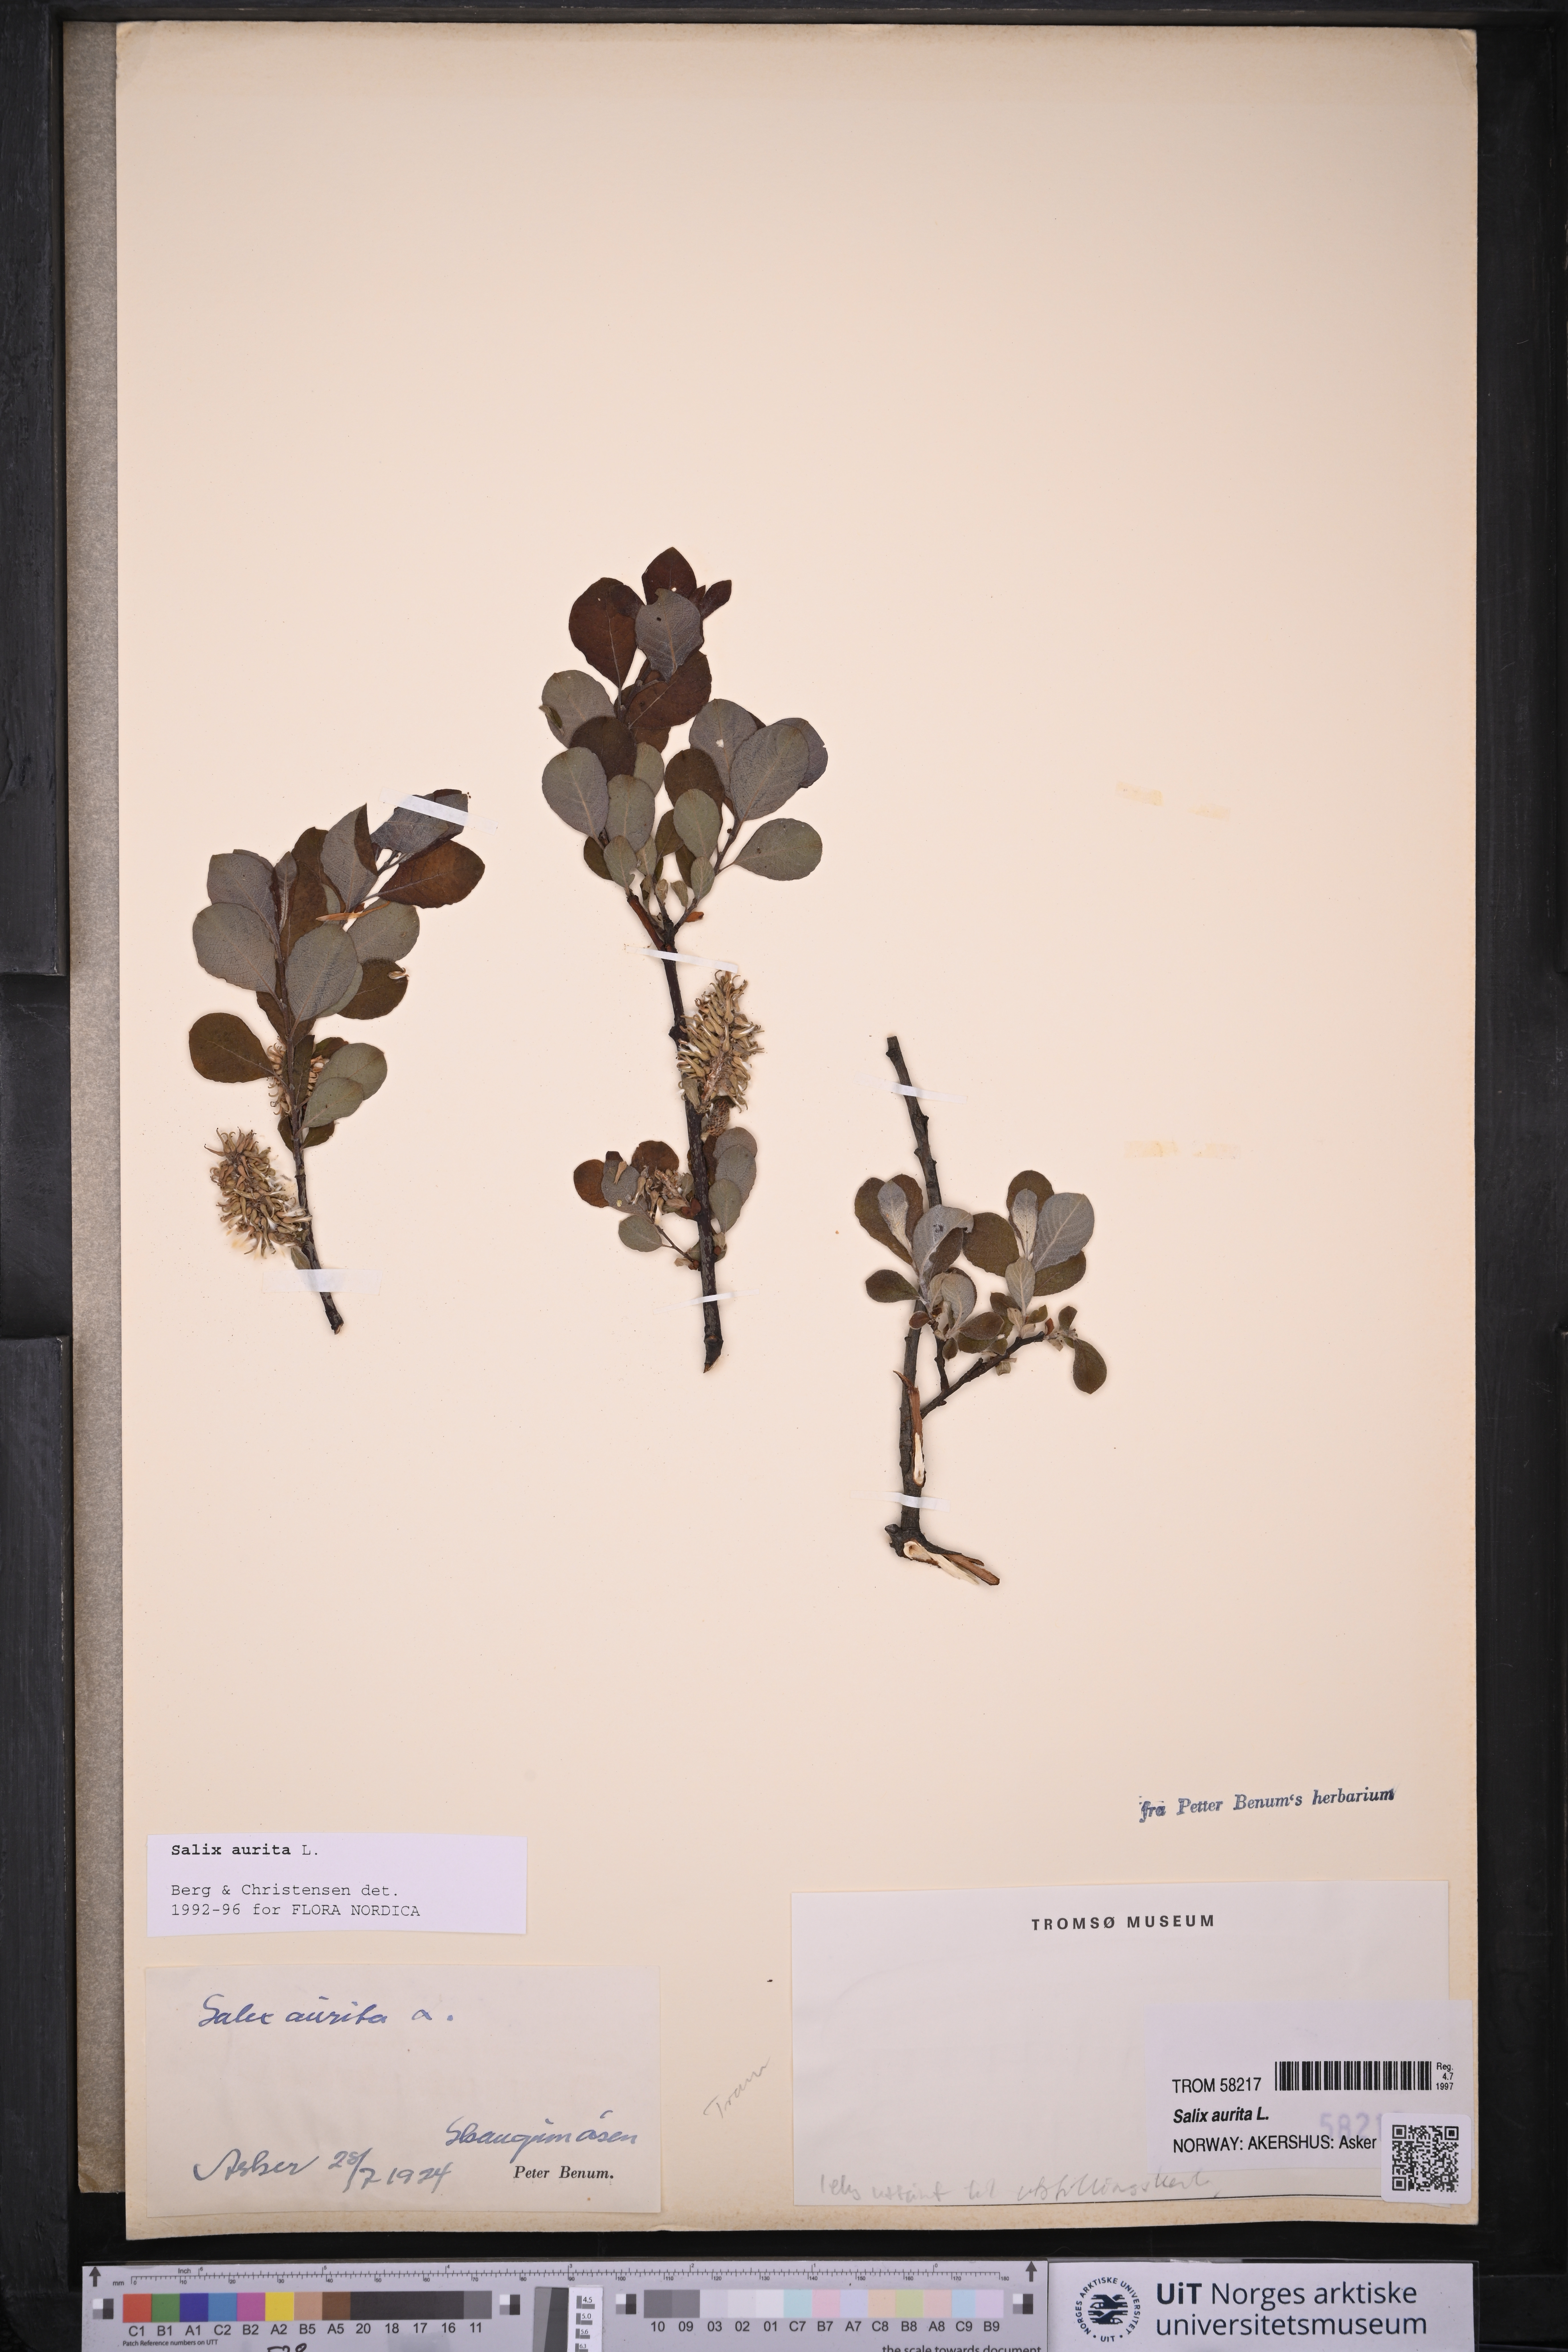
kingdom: Plantae
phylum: Tracheophyta
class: Magnoliopsida
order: Malpighiales
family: Salicaceae
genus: Salix
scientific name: Salix aurita
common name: Eared willow
